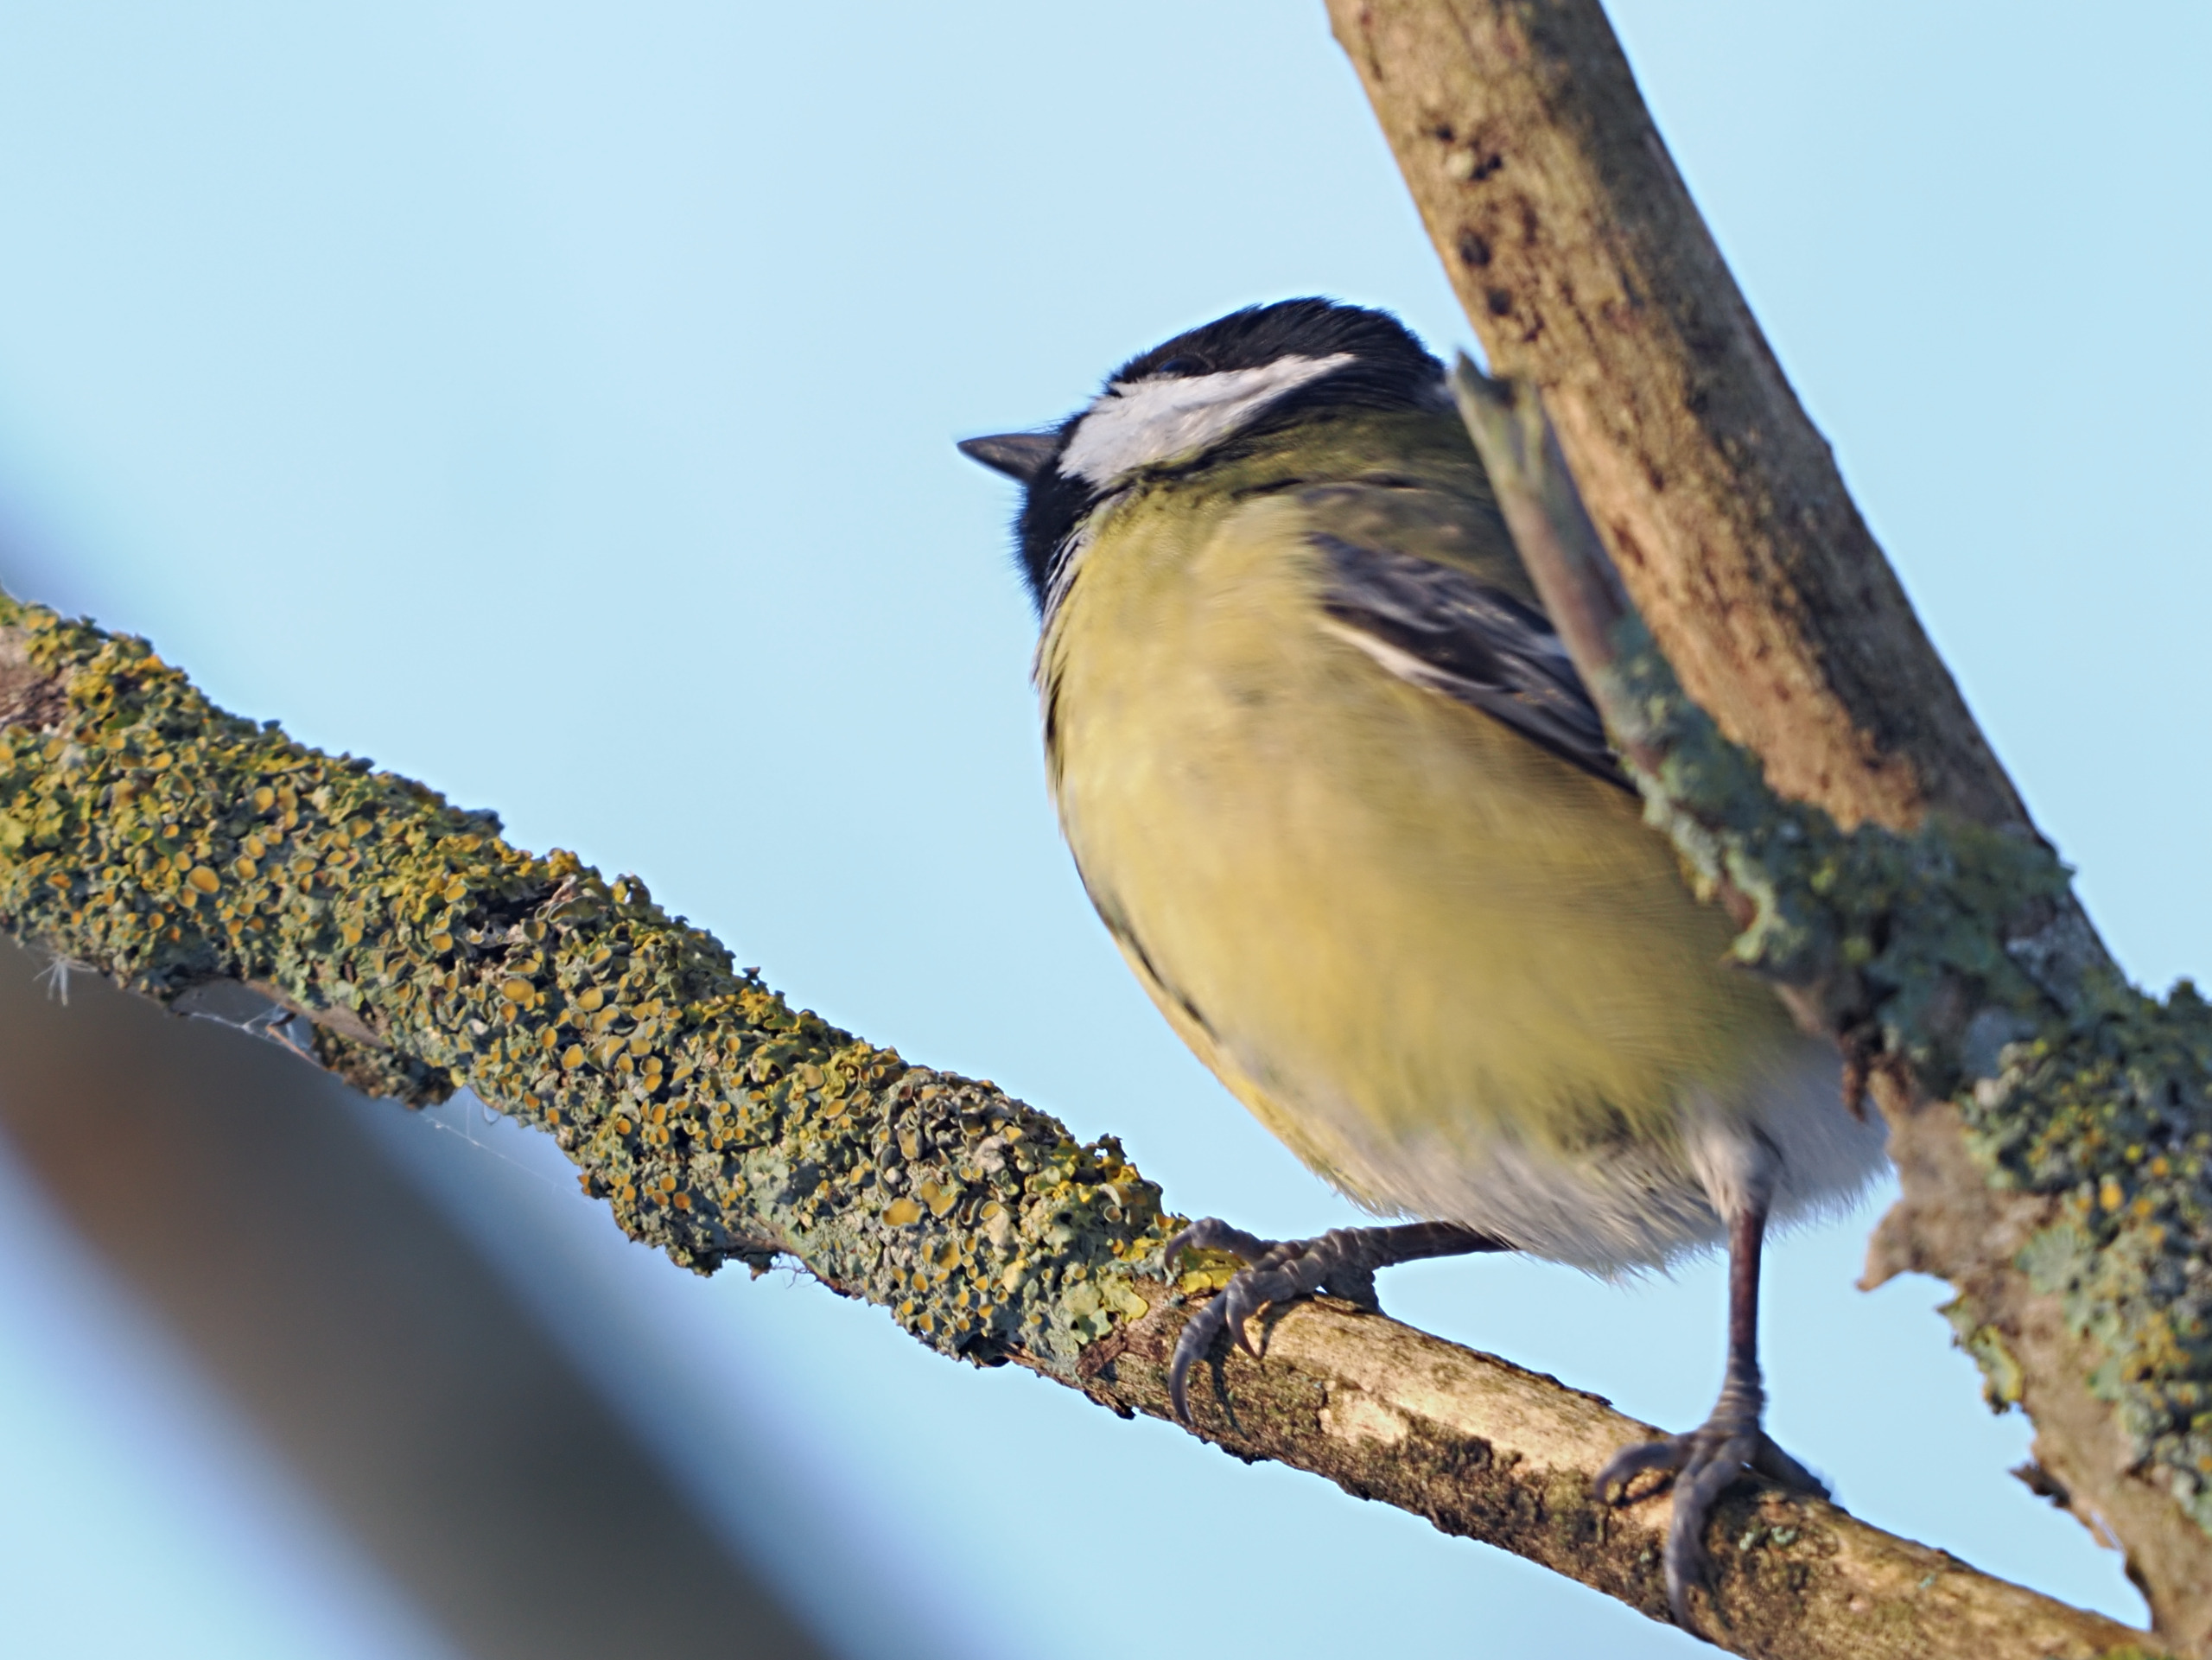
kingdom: Animalia
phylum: Chordata
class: Aves
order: Passeriformes
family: Paridae
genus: Parus
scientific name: Parus major
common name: Musvit
